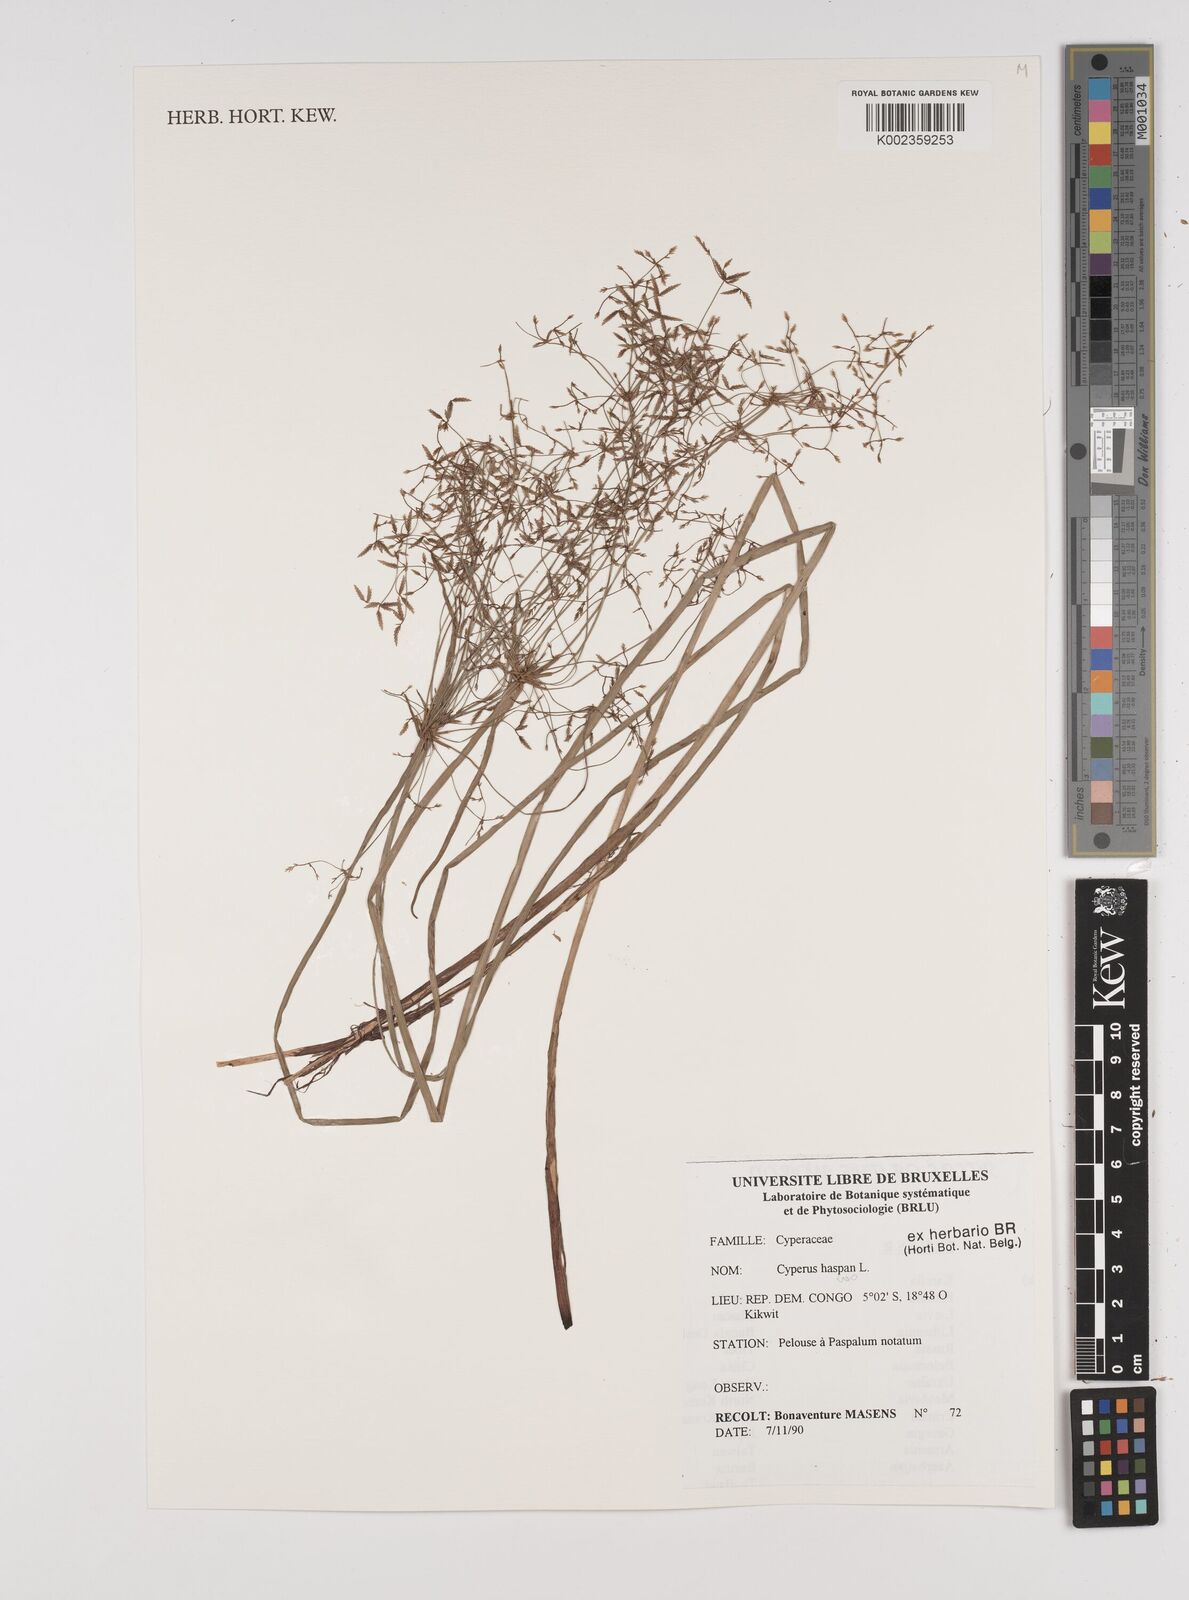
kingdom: Plantae
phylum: Tracheophyta
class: Liliopsida
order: Poales
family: Cyperaceae
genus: Cyperus
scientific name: Cyperus haspan
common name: Haspan flatsedge
